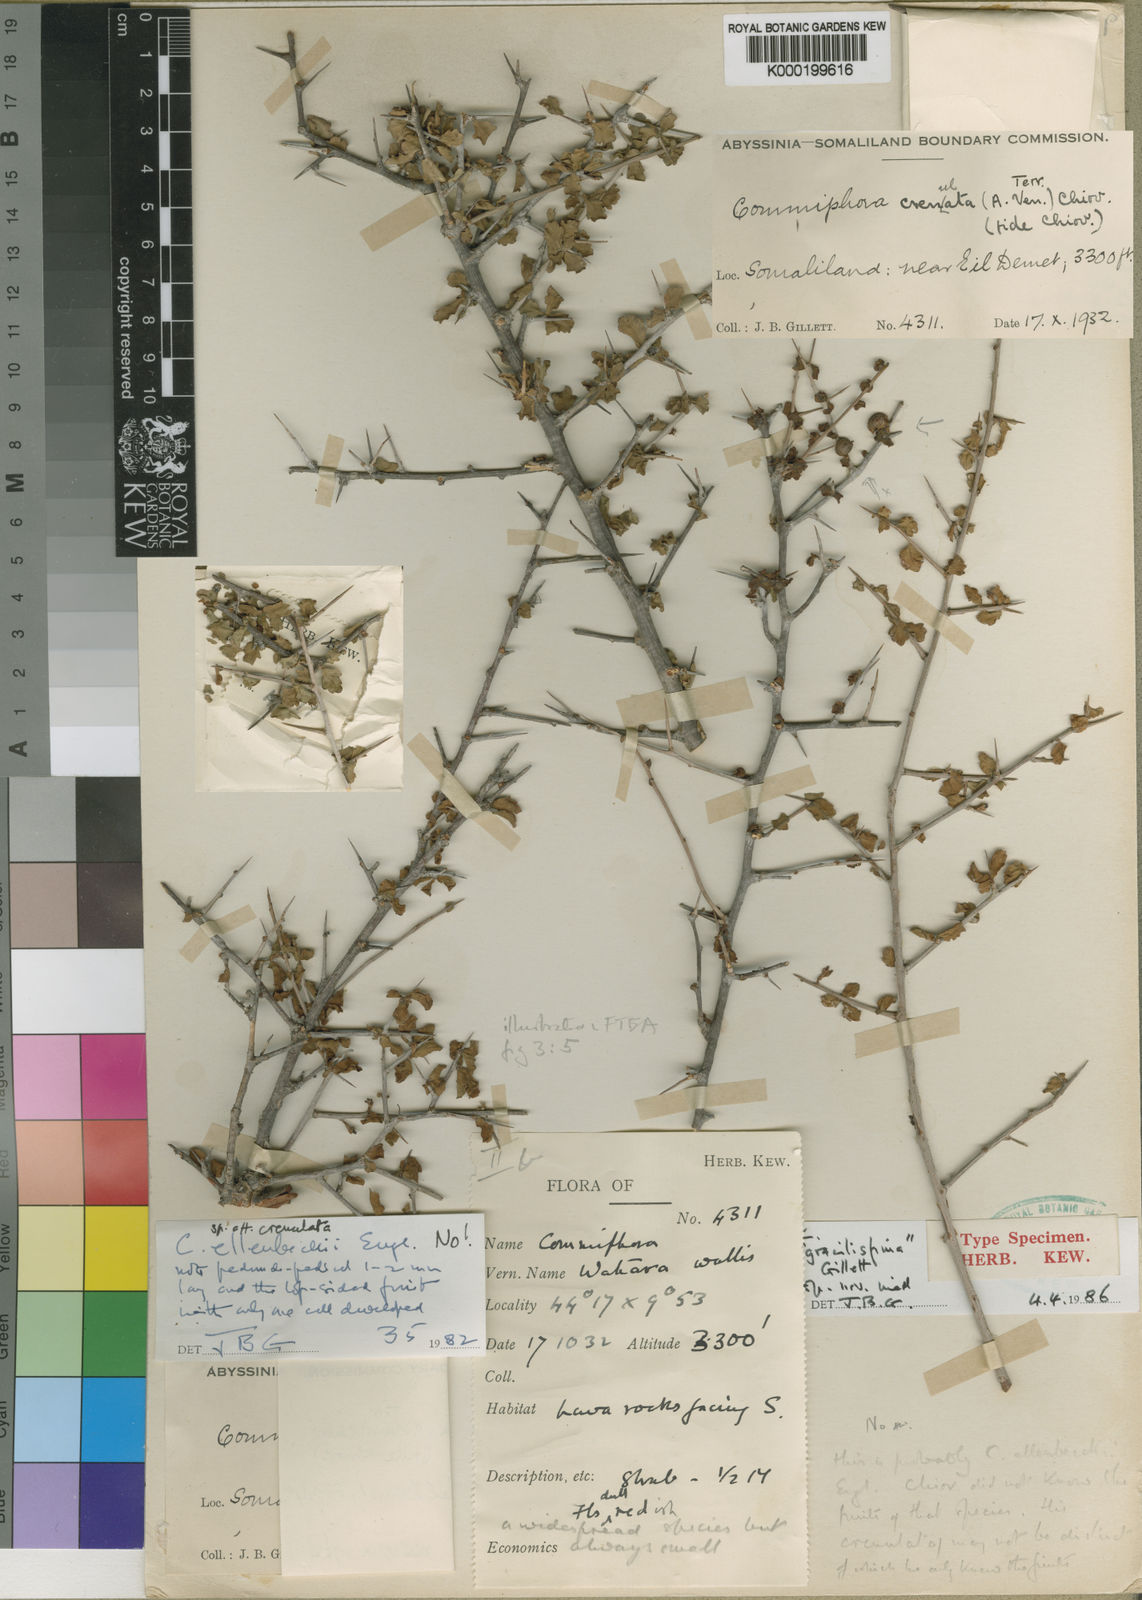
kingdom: Plantae
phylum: Tracheophyta
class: Magnoliopsida
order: Sapindales
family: Burseraceae
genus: Commiphora
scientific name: Commiphora kua
